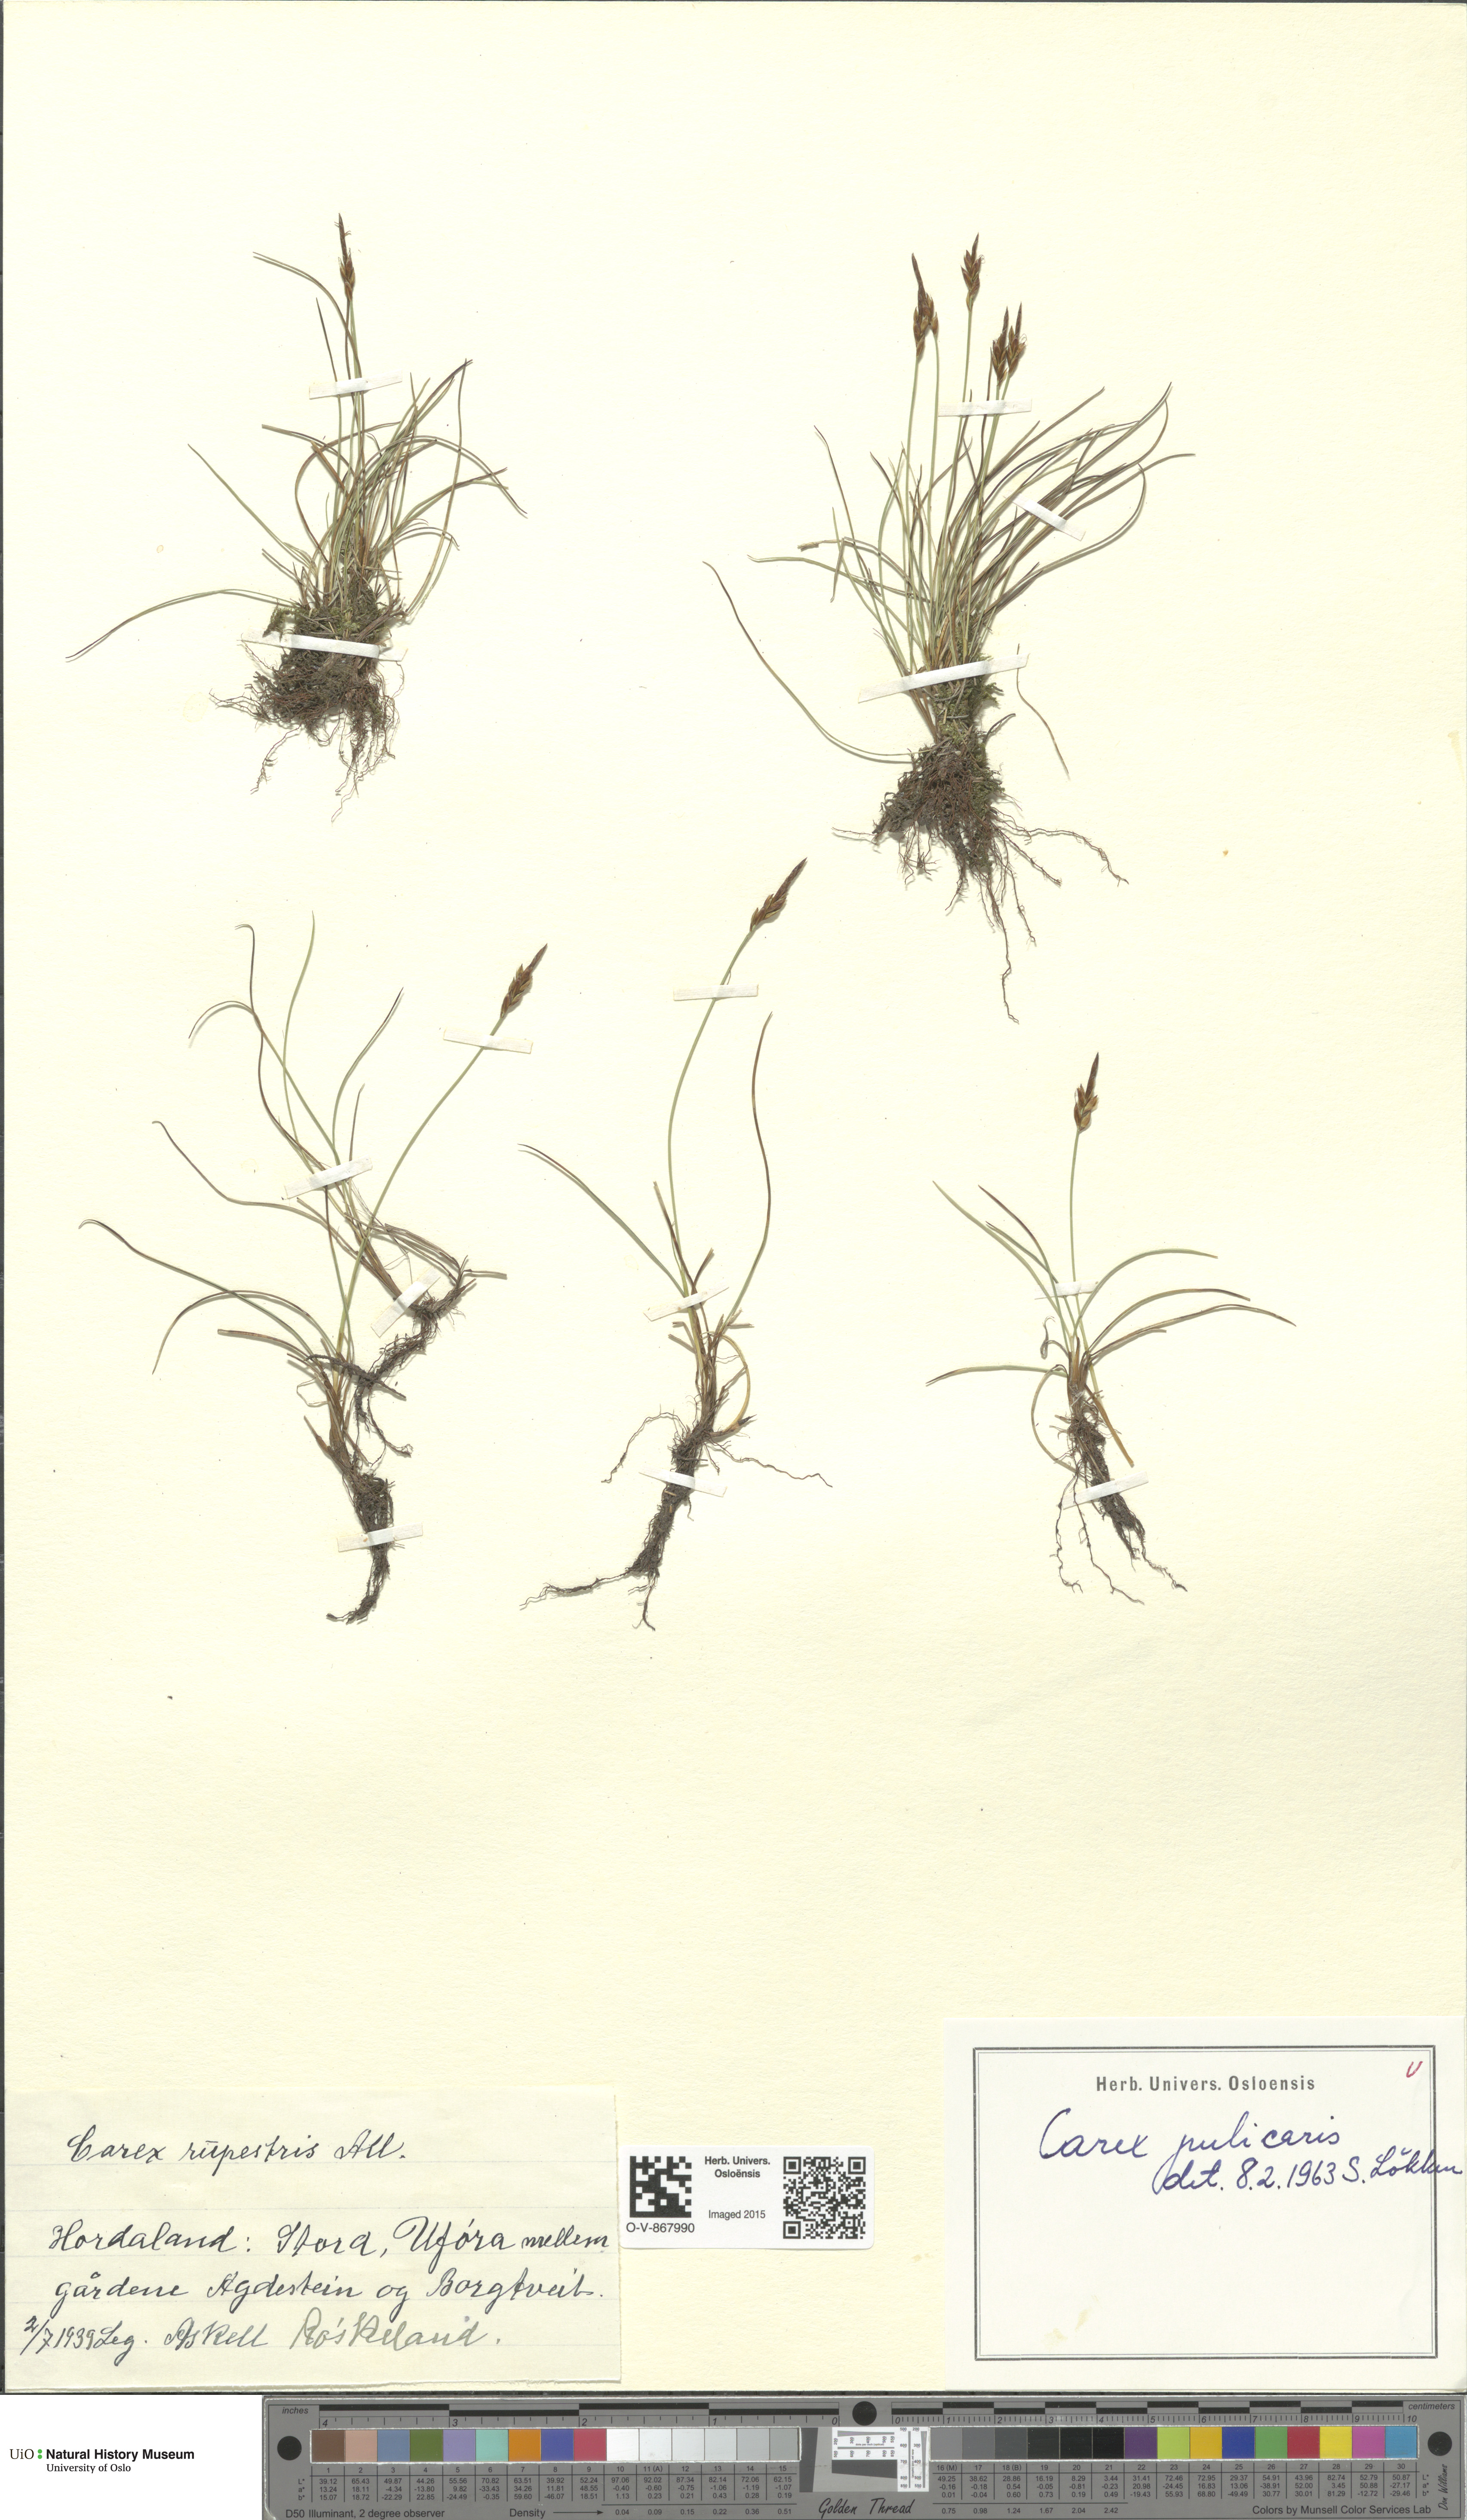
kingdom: Plantae
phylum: Tracheophyta
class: Liliopsida
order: Poales
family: Cyperaceae
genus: Carex
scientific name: Carex pulicaris
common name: Flea sedge
